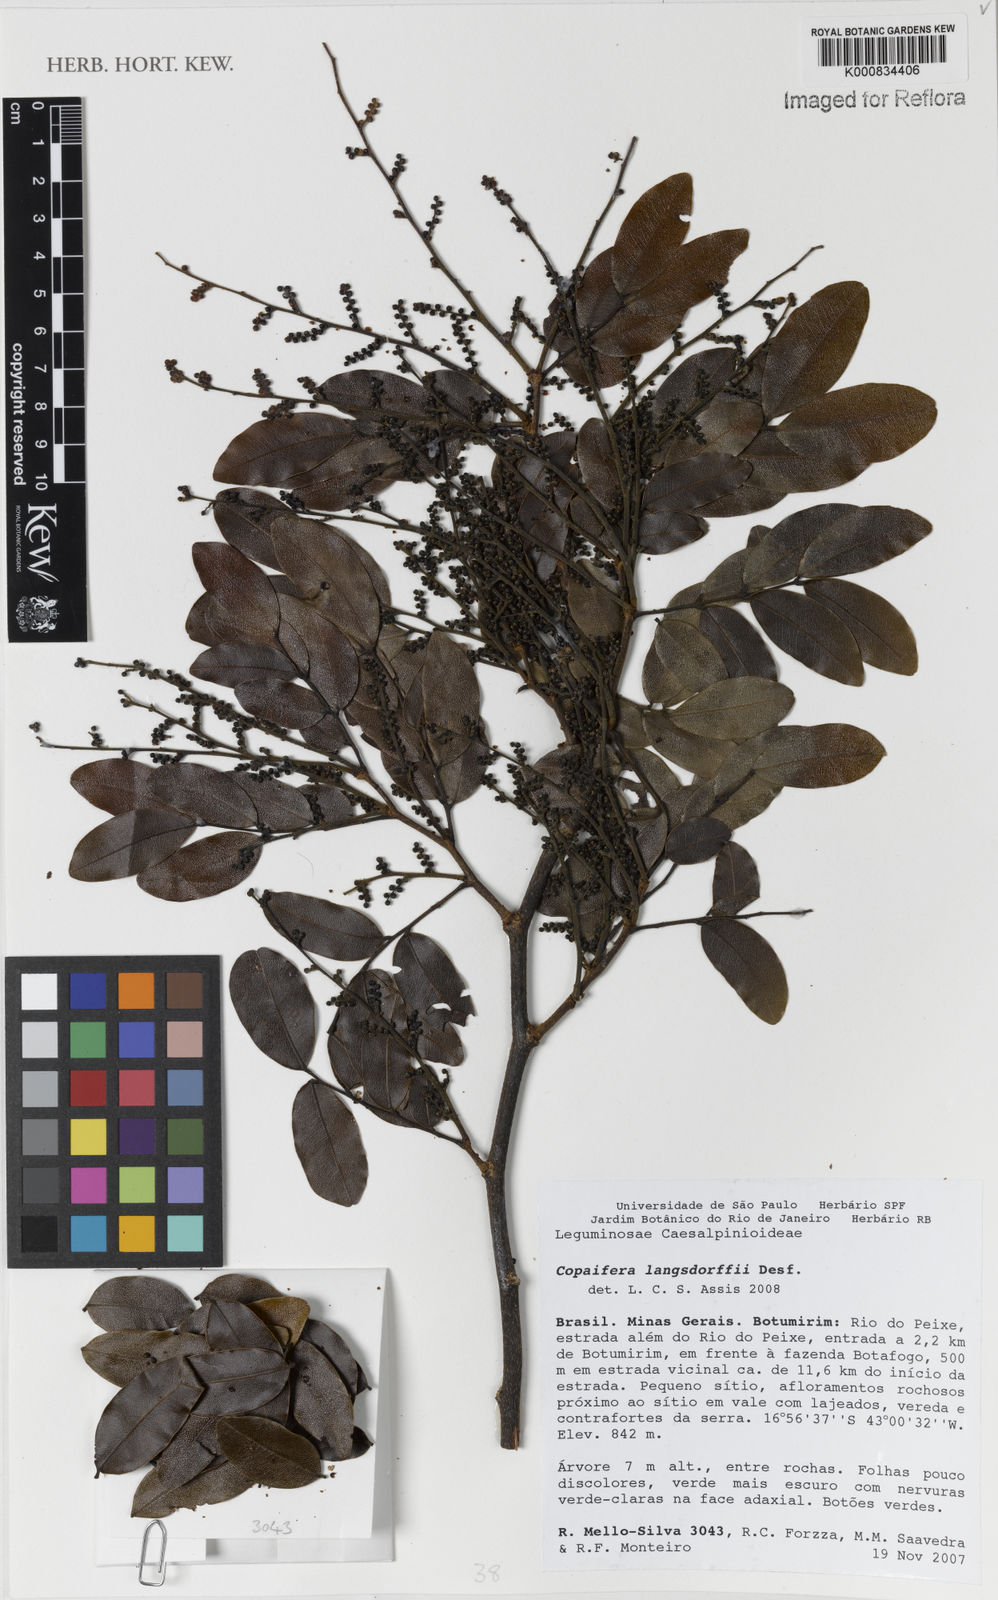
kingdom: Plantae
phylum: Tracheophyta
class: Magnoliopsida
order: Fabales
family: Fabaceae
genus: Copaifera
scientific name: Copaifera langsdorffii
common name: Brazilian diesel tree
